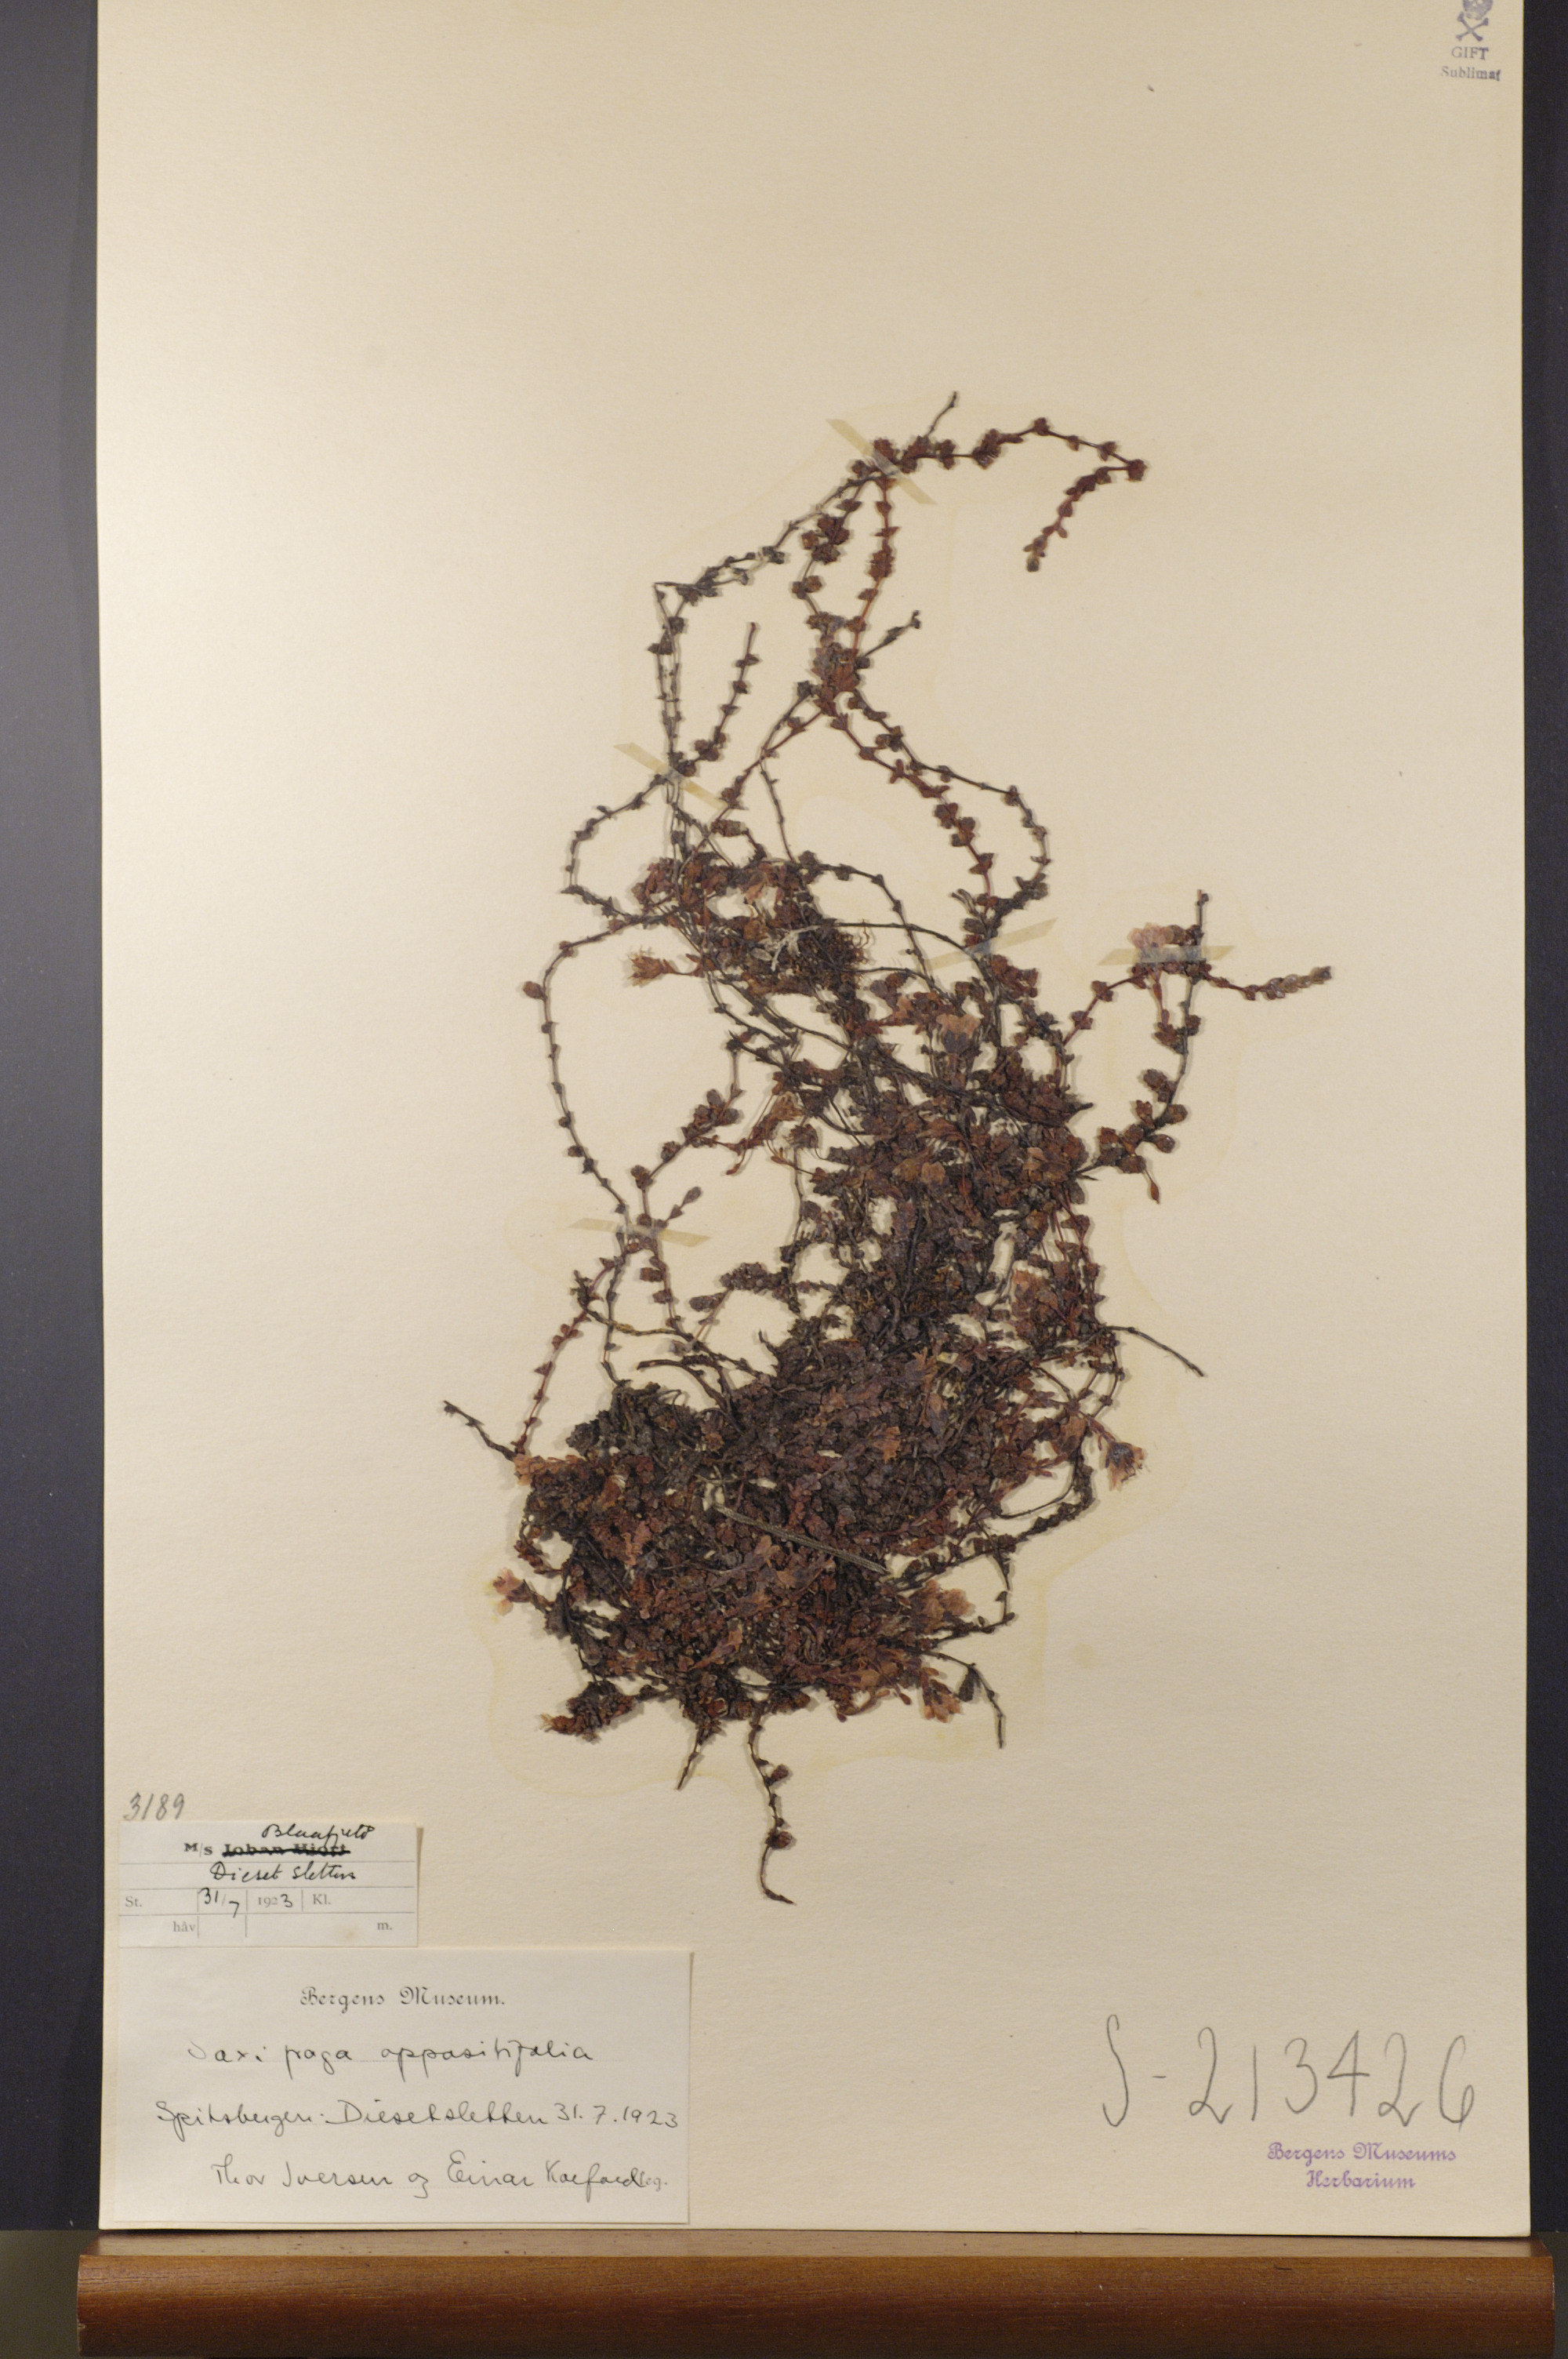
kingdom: Plantae
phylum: Tracheophyta
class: Magnoliopsida
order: Saxifragales
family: Saxifragaceae
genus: Saxifraga
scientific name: Saxifraga oppositifolia
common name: Purple saxifrage
